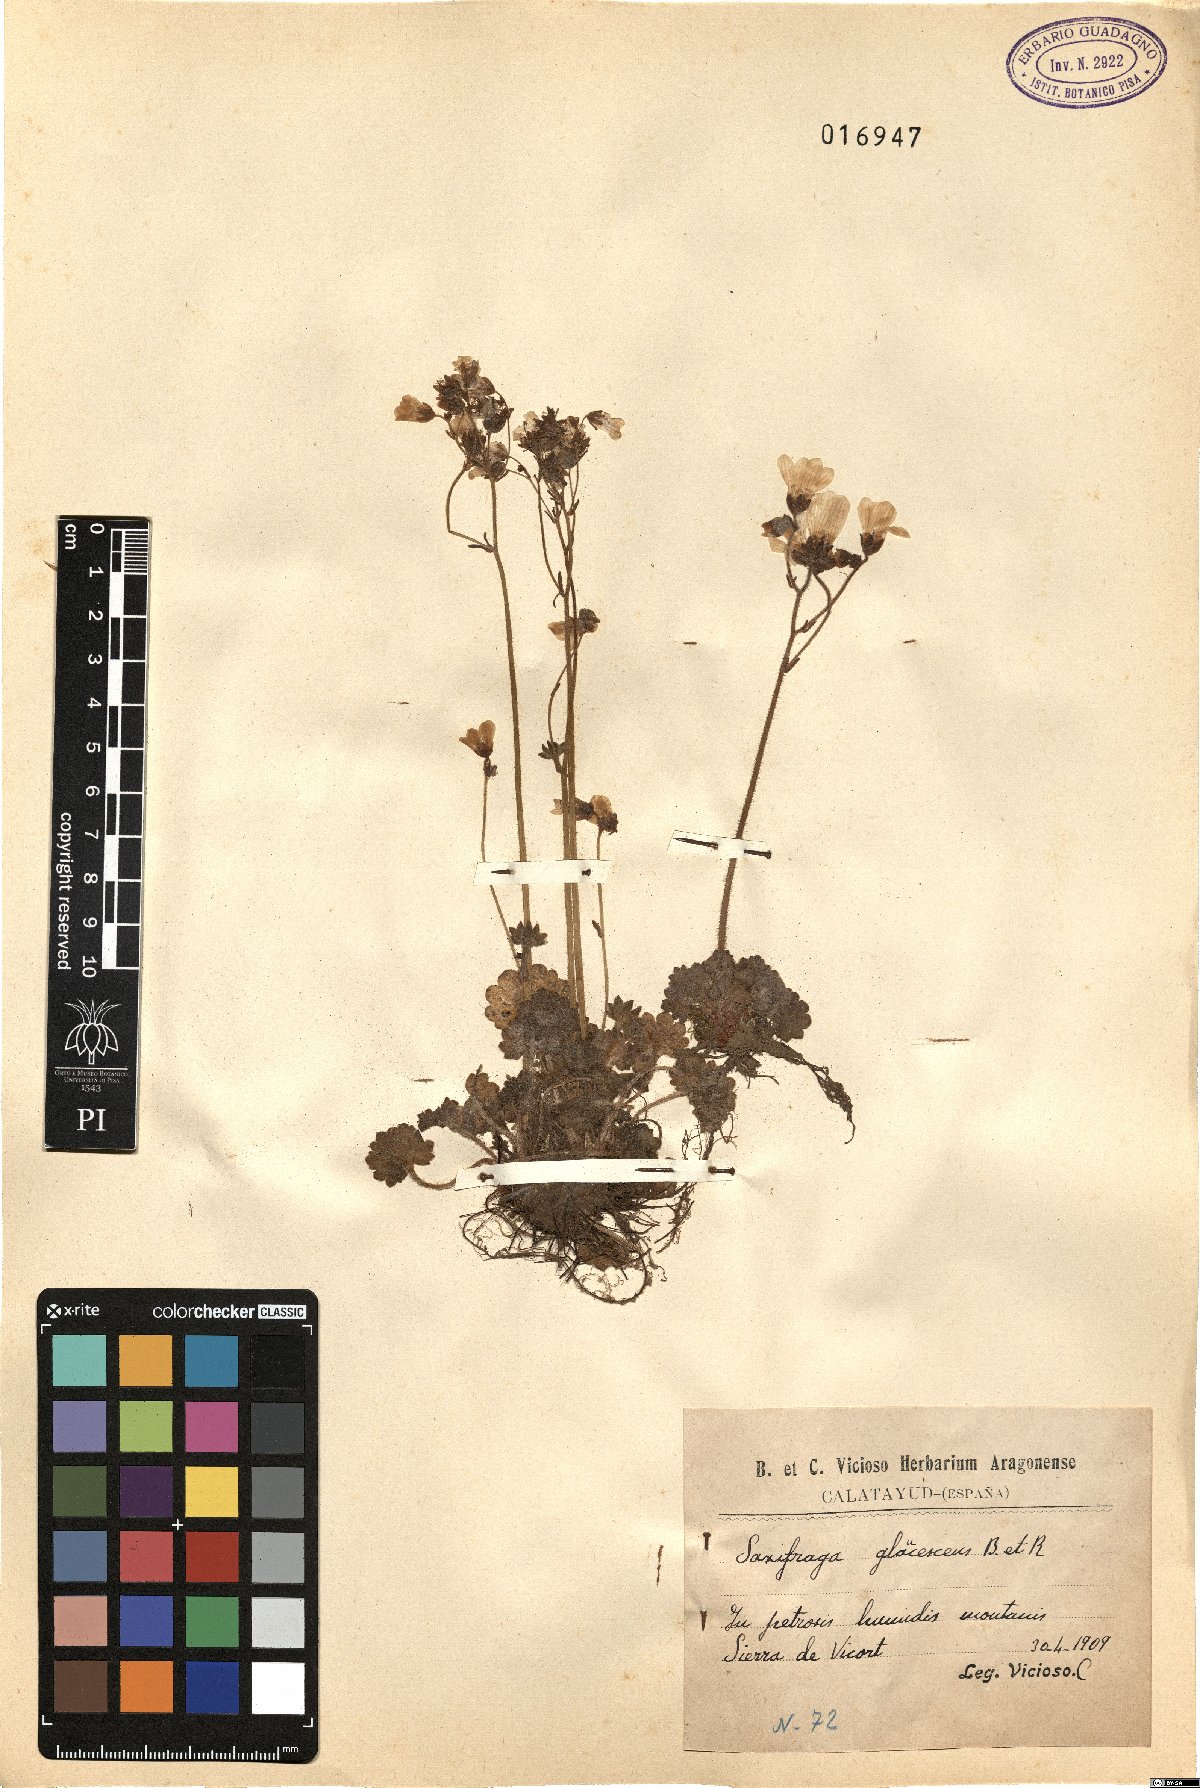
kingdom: Plantae
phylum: Tracheophyta
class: Magnoliopsida
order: Saxifragales
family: Saxifragaceae
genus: Saxifraga
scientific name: Saxifraga granulata
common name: Meadow saxifrage
